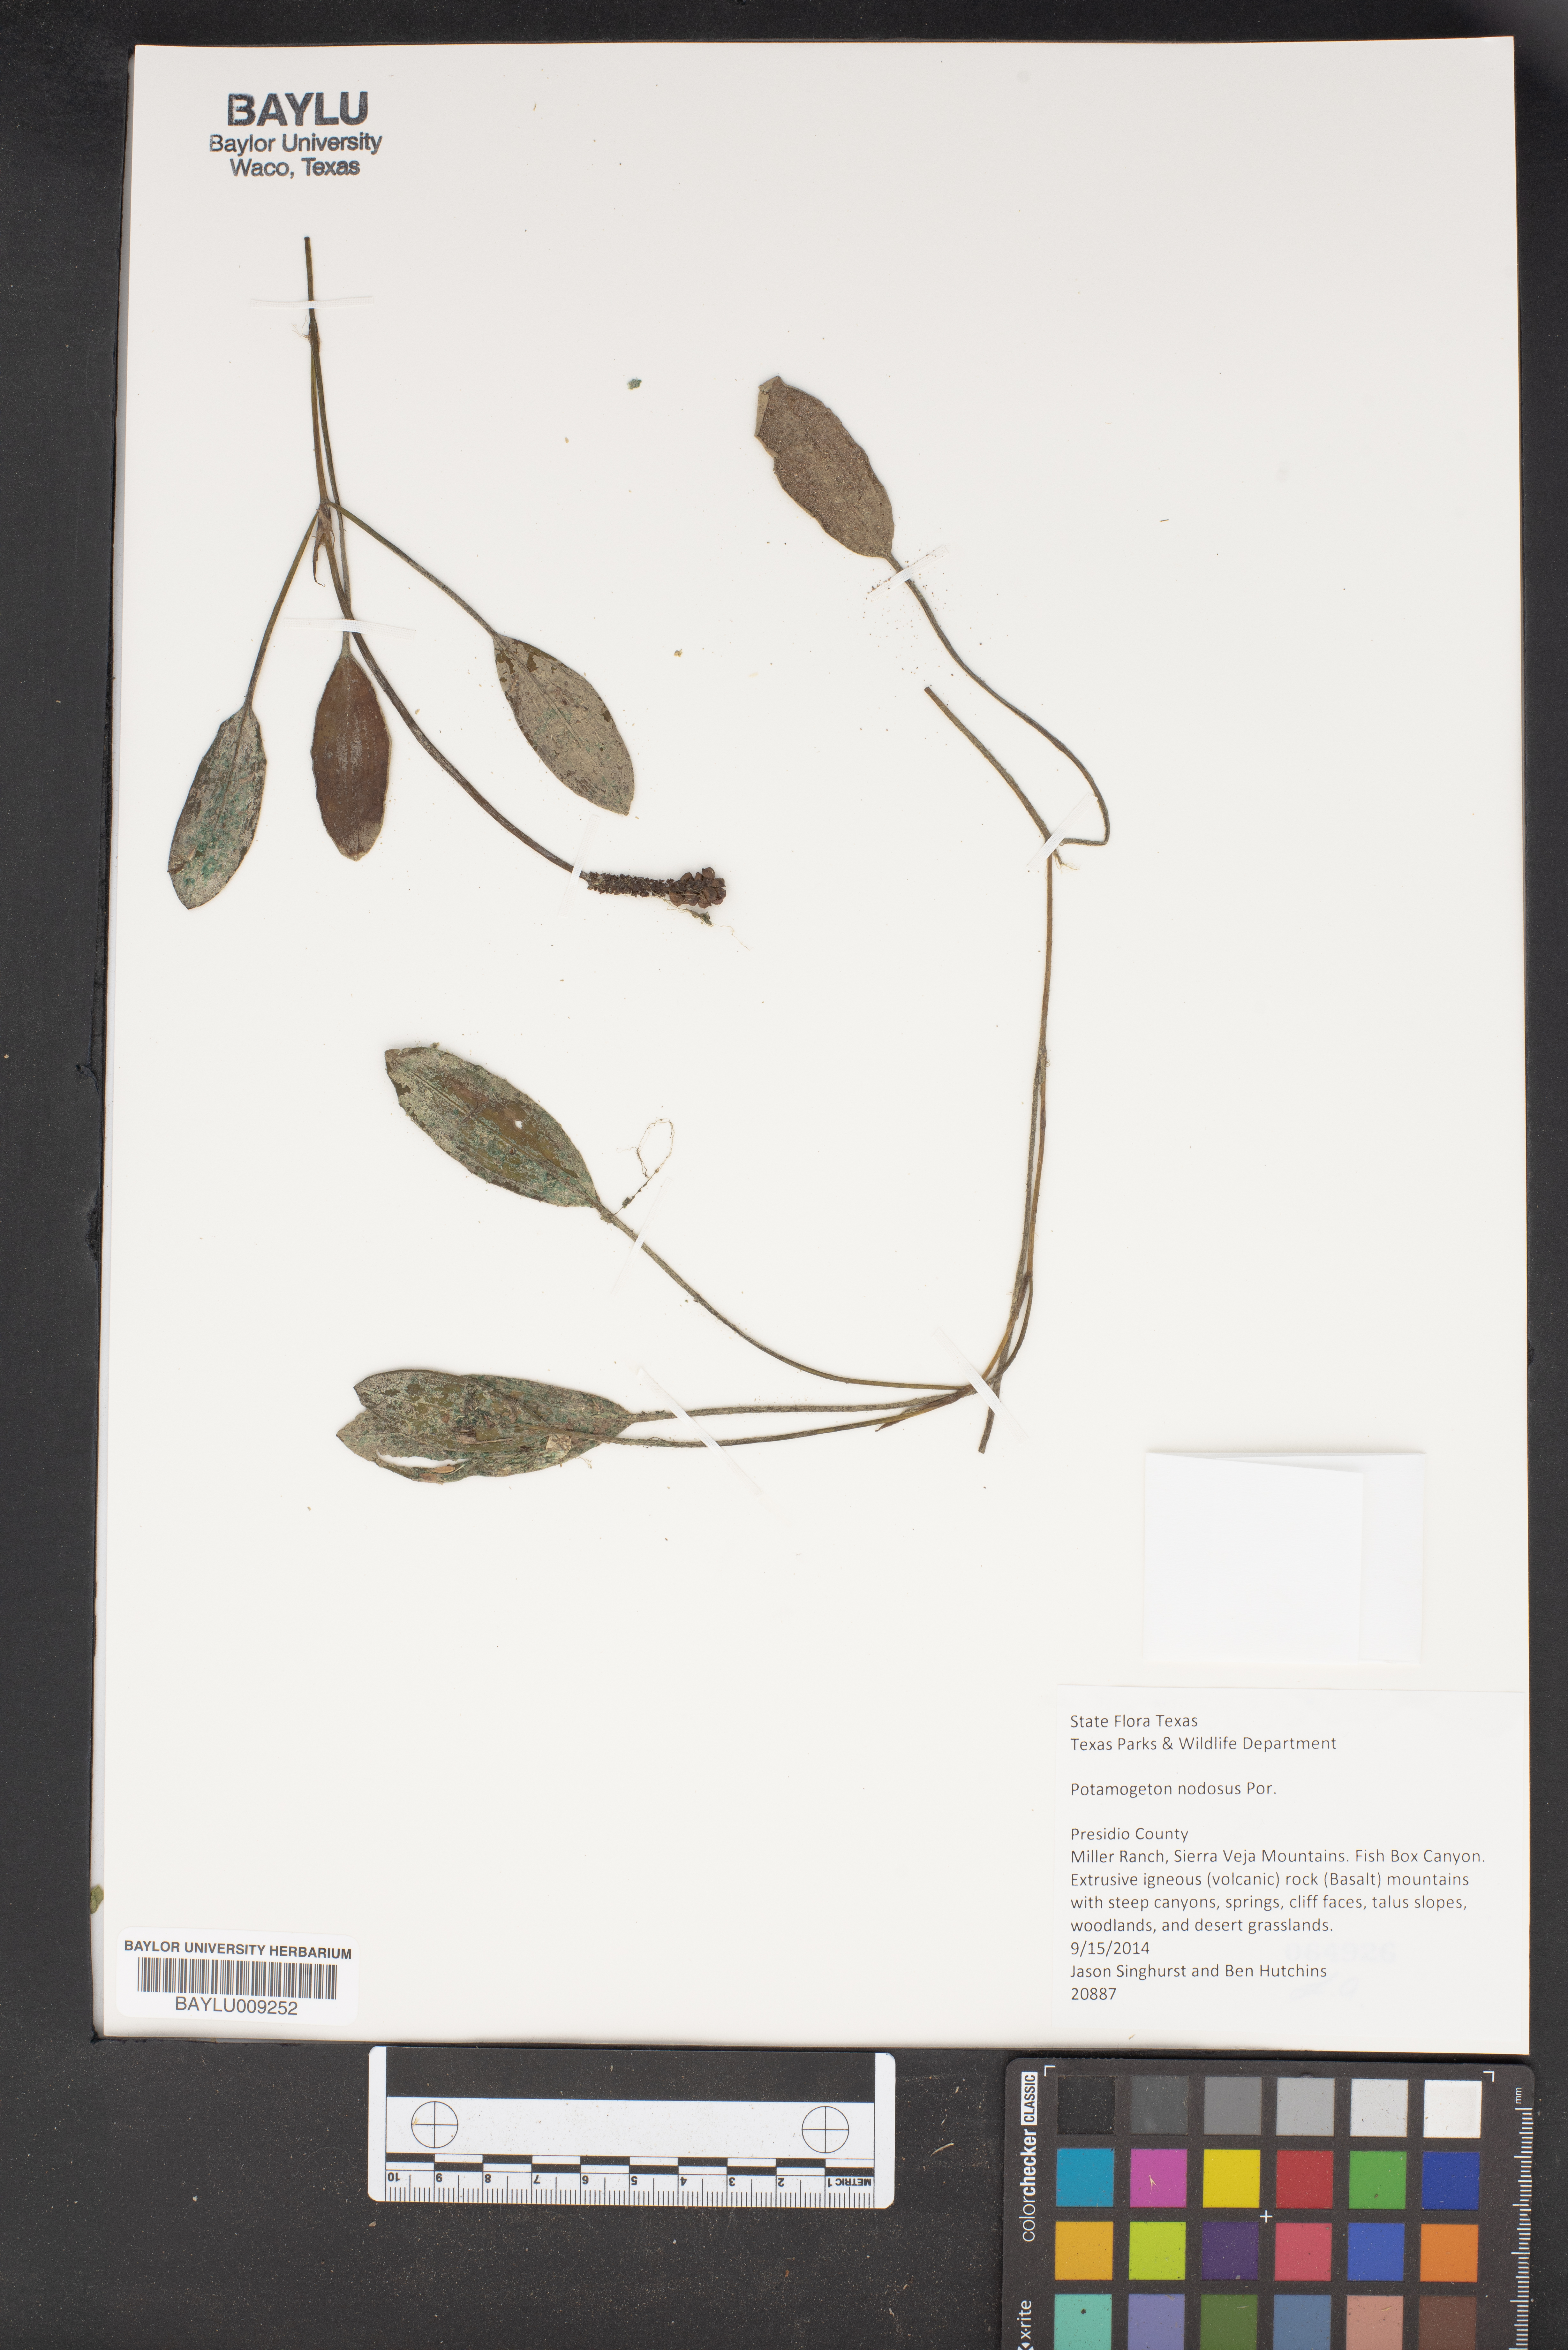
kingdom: Plantae
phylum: Tracheophyta
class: Liliopsida
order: Alismatales
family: Potamogetonaceae
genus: Potamogeton
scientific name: Potamogeton nodosus
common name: Loddon pondweed
